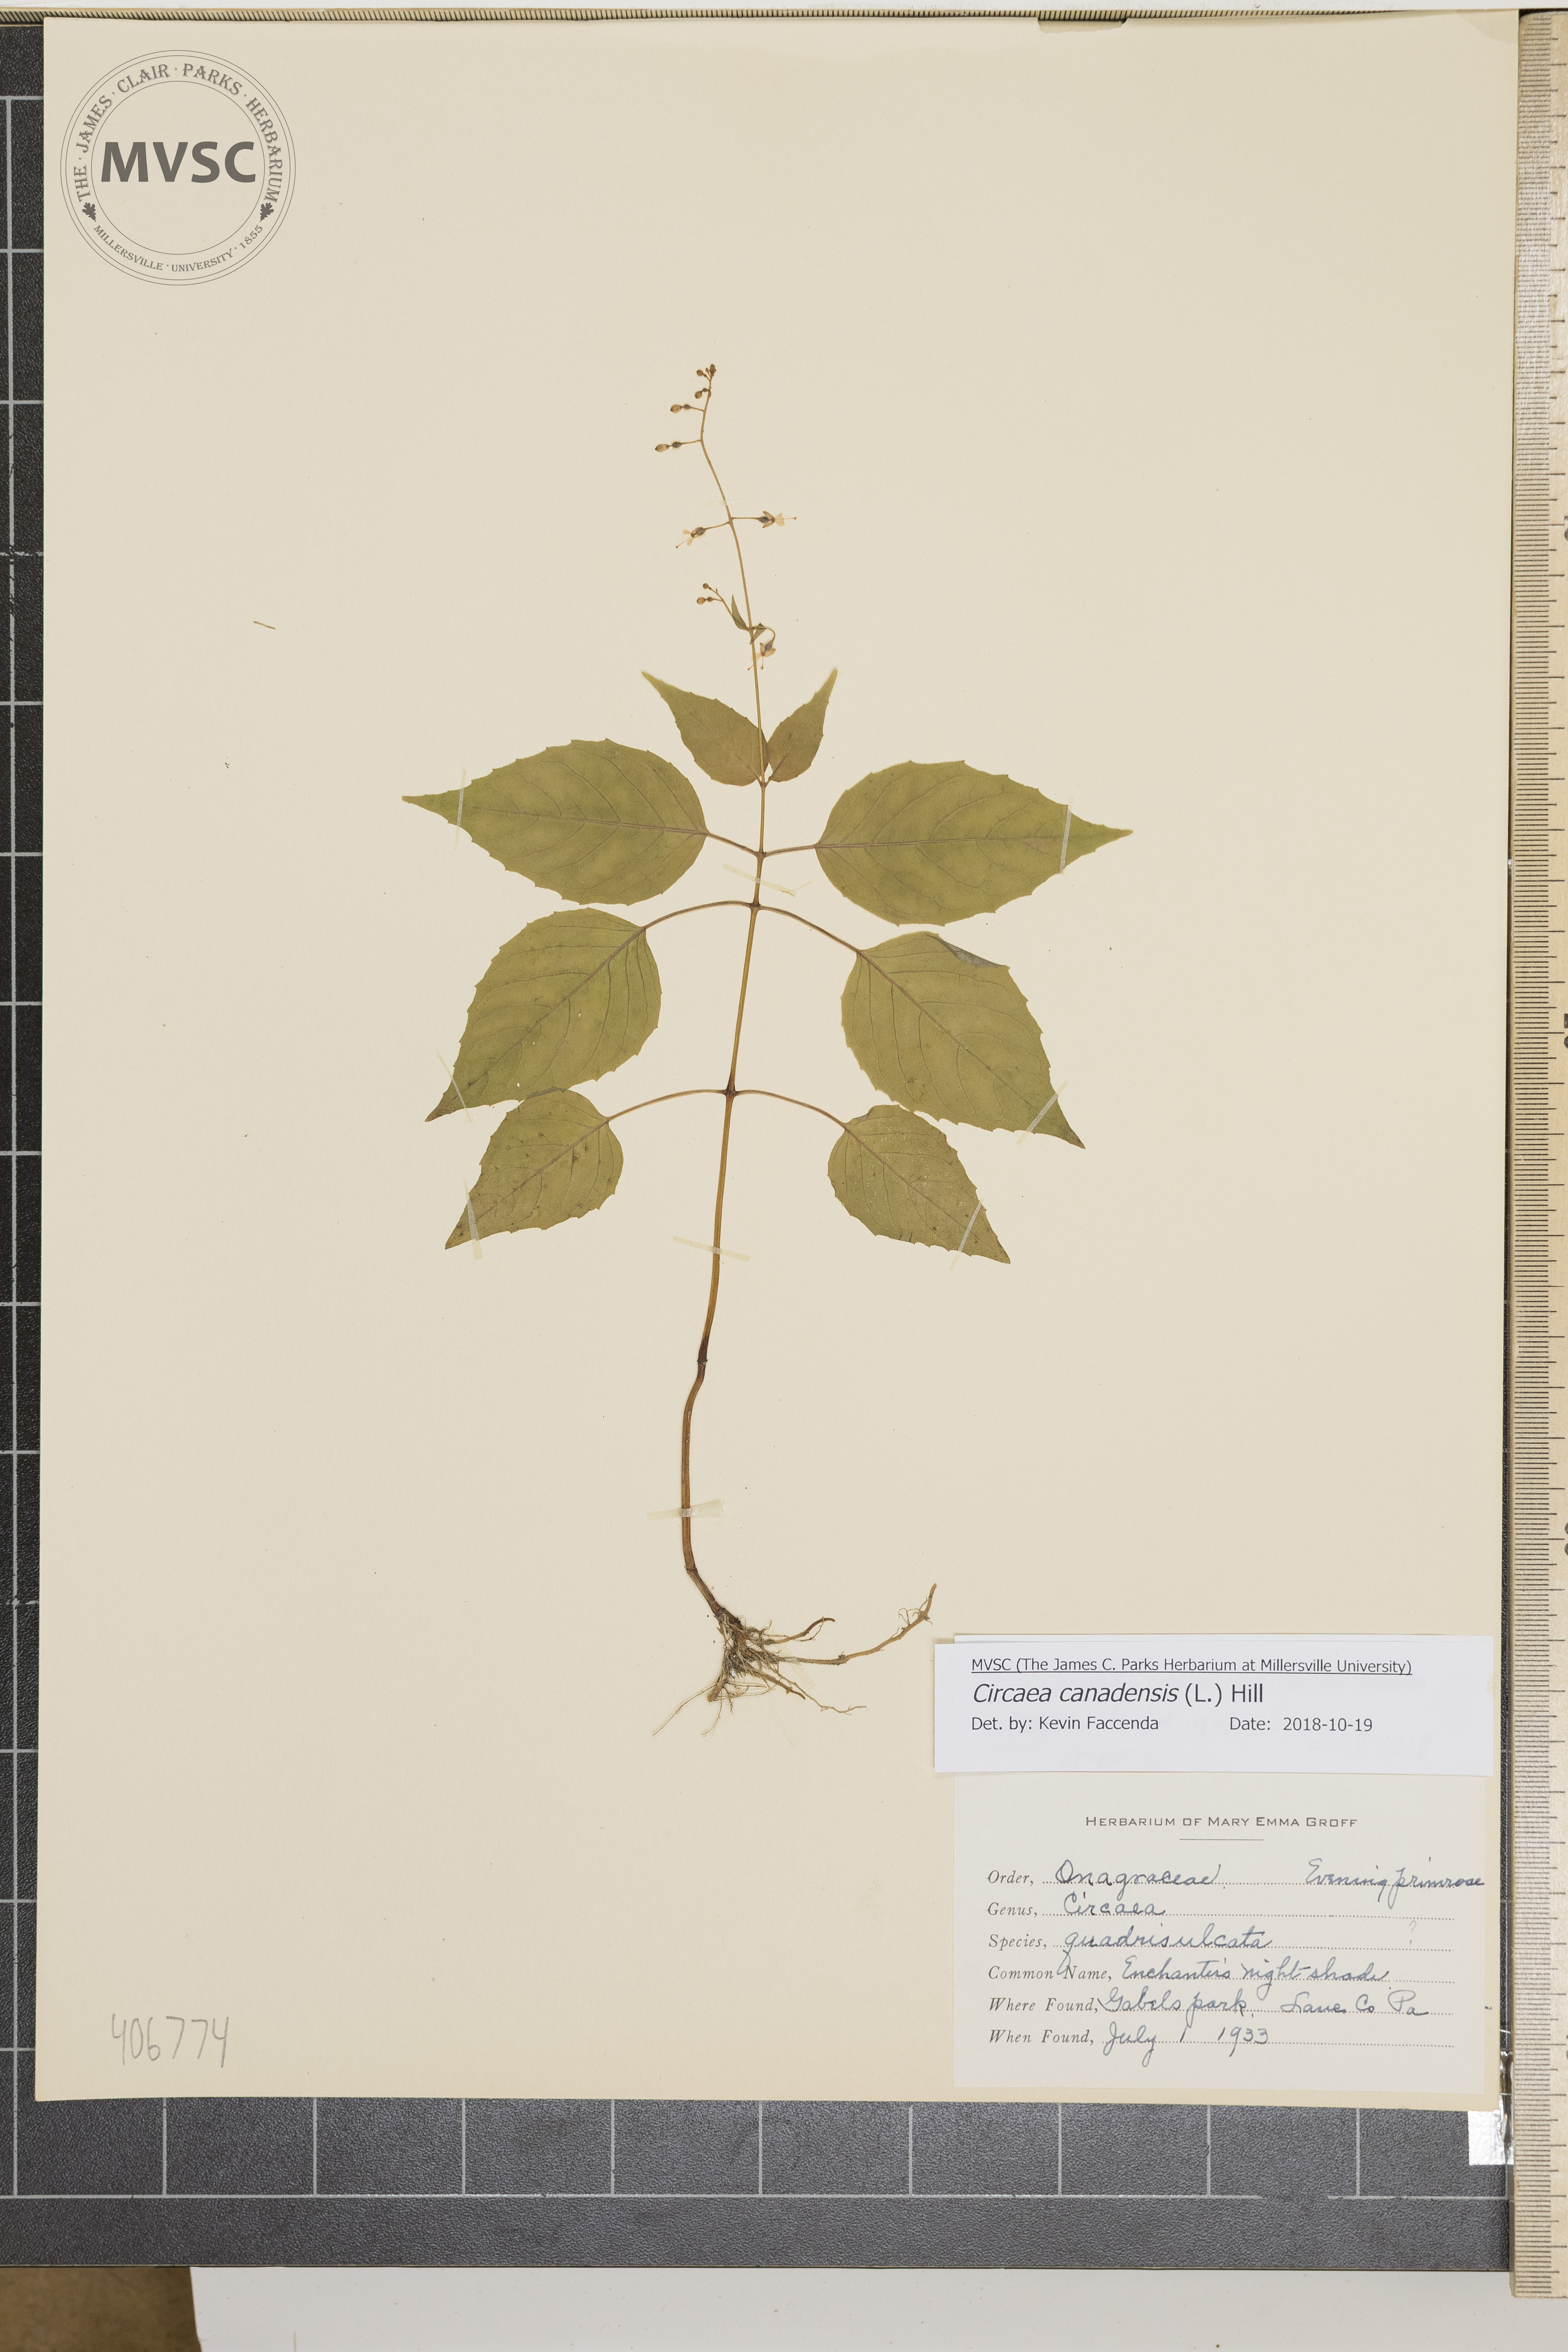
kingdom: Plantae
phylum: Tracheophyta
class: Magnoliopsida
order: Myrtales
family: Onagraceae
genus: Circaea
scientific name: Circaea canadensis
